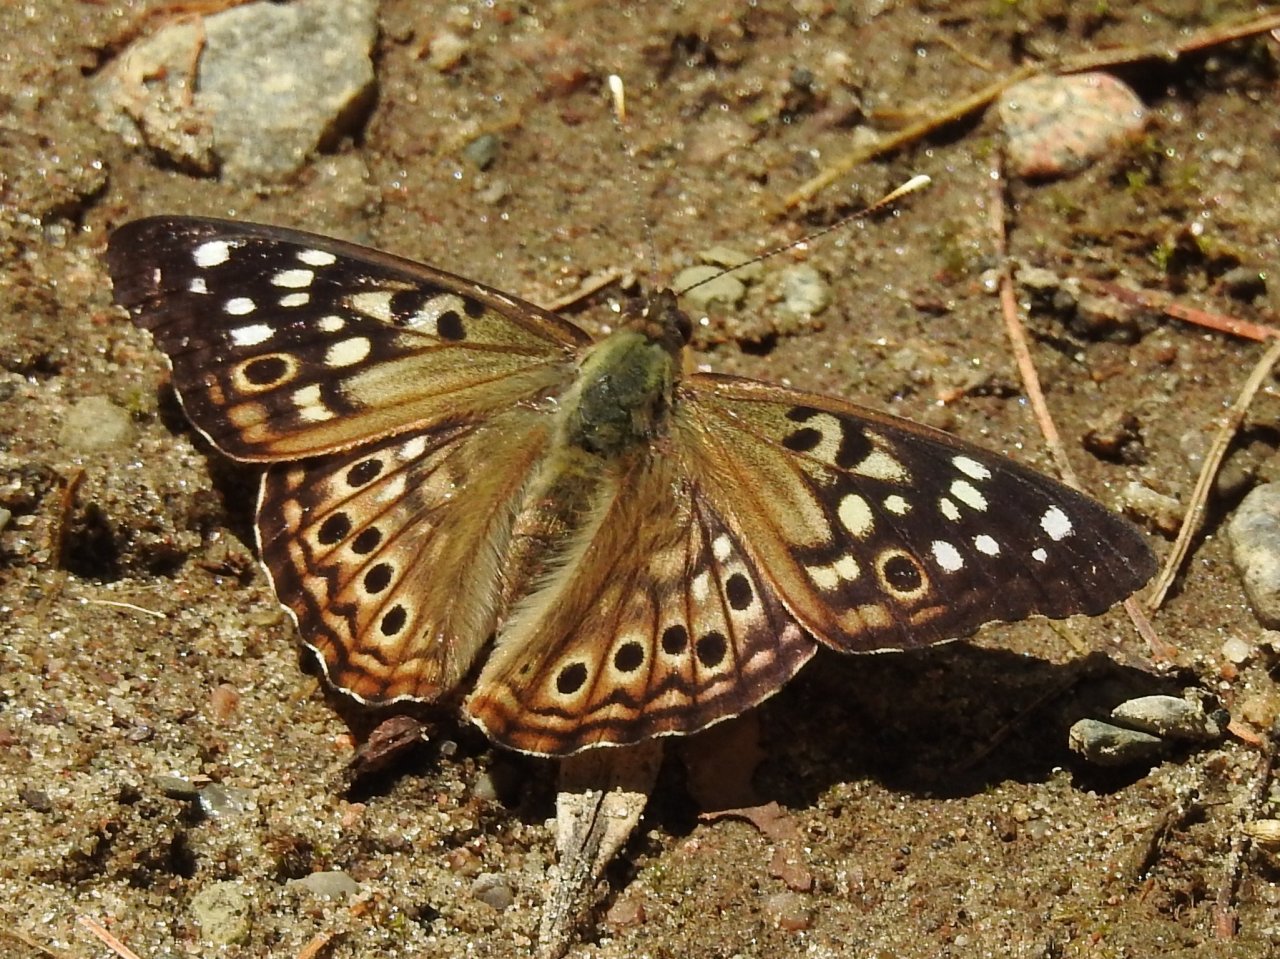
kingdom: Animalia
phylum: Arthropoda
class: Insecta
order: Lepidoptera
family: Nymphalidae
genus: Asterocampa
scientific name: Asterocampa celtis
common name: Hackberry Emperor
